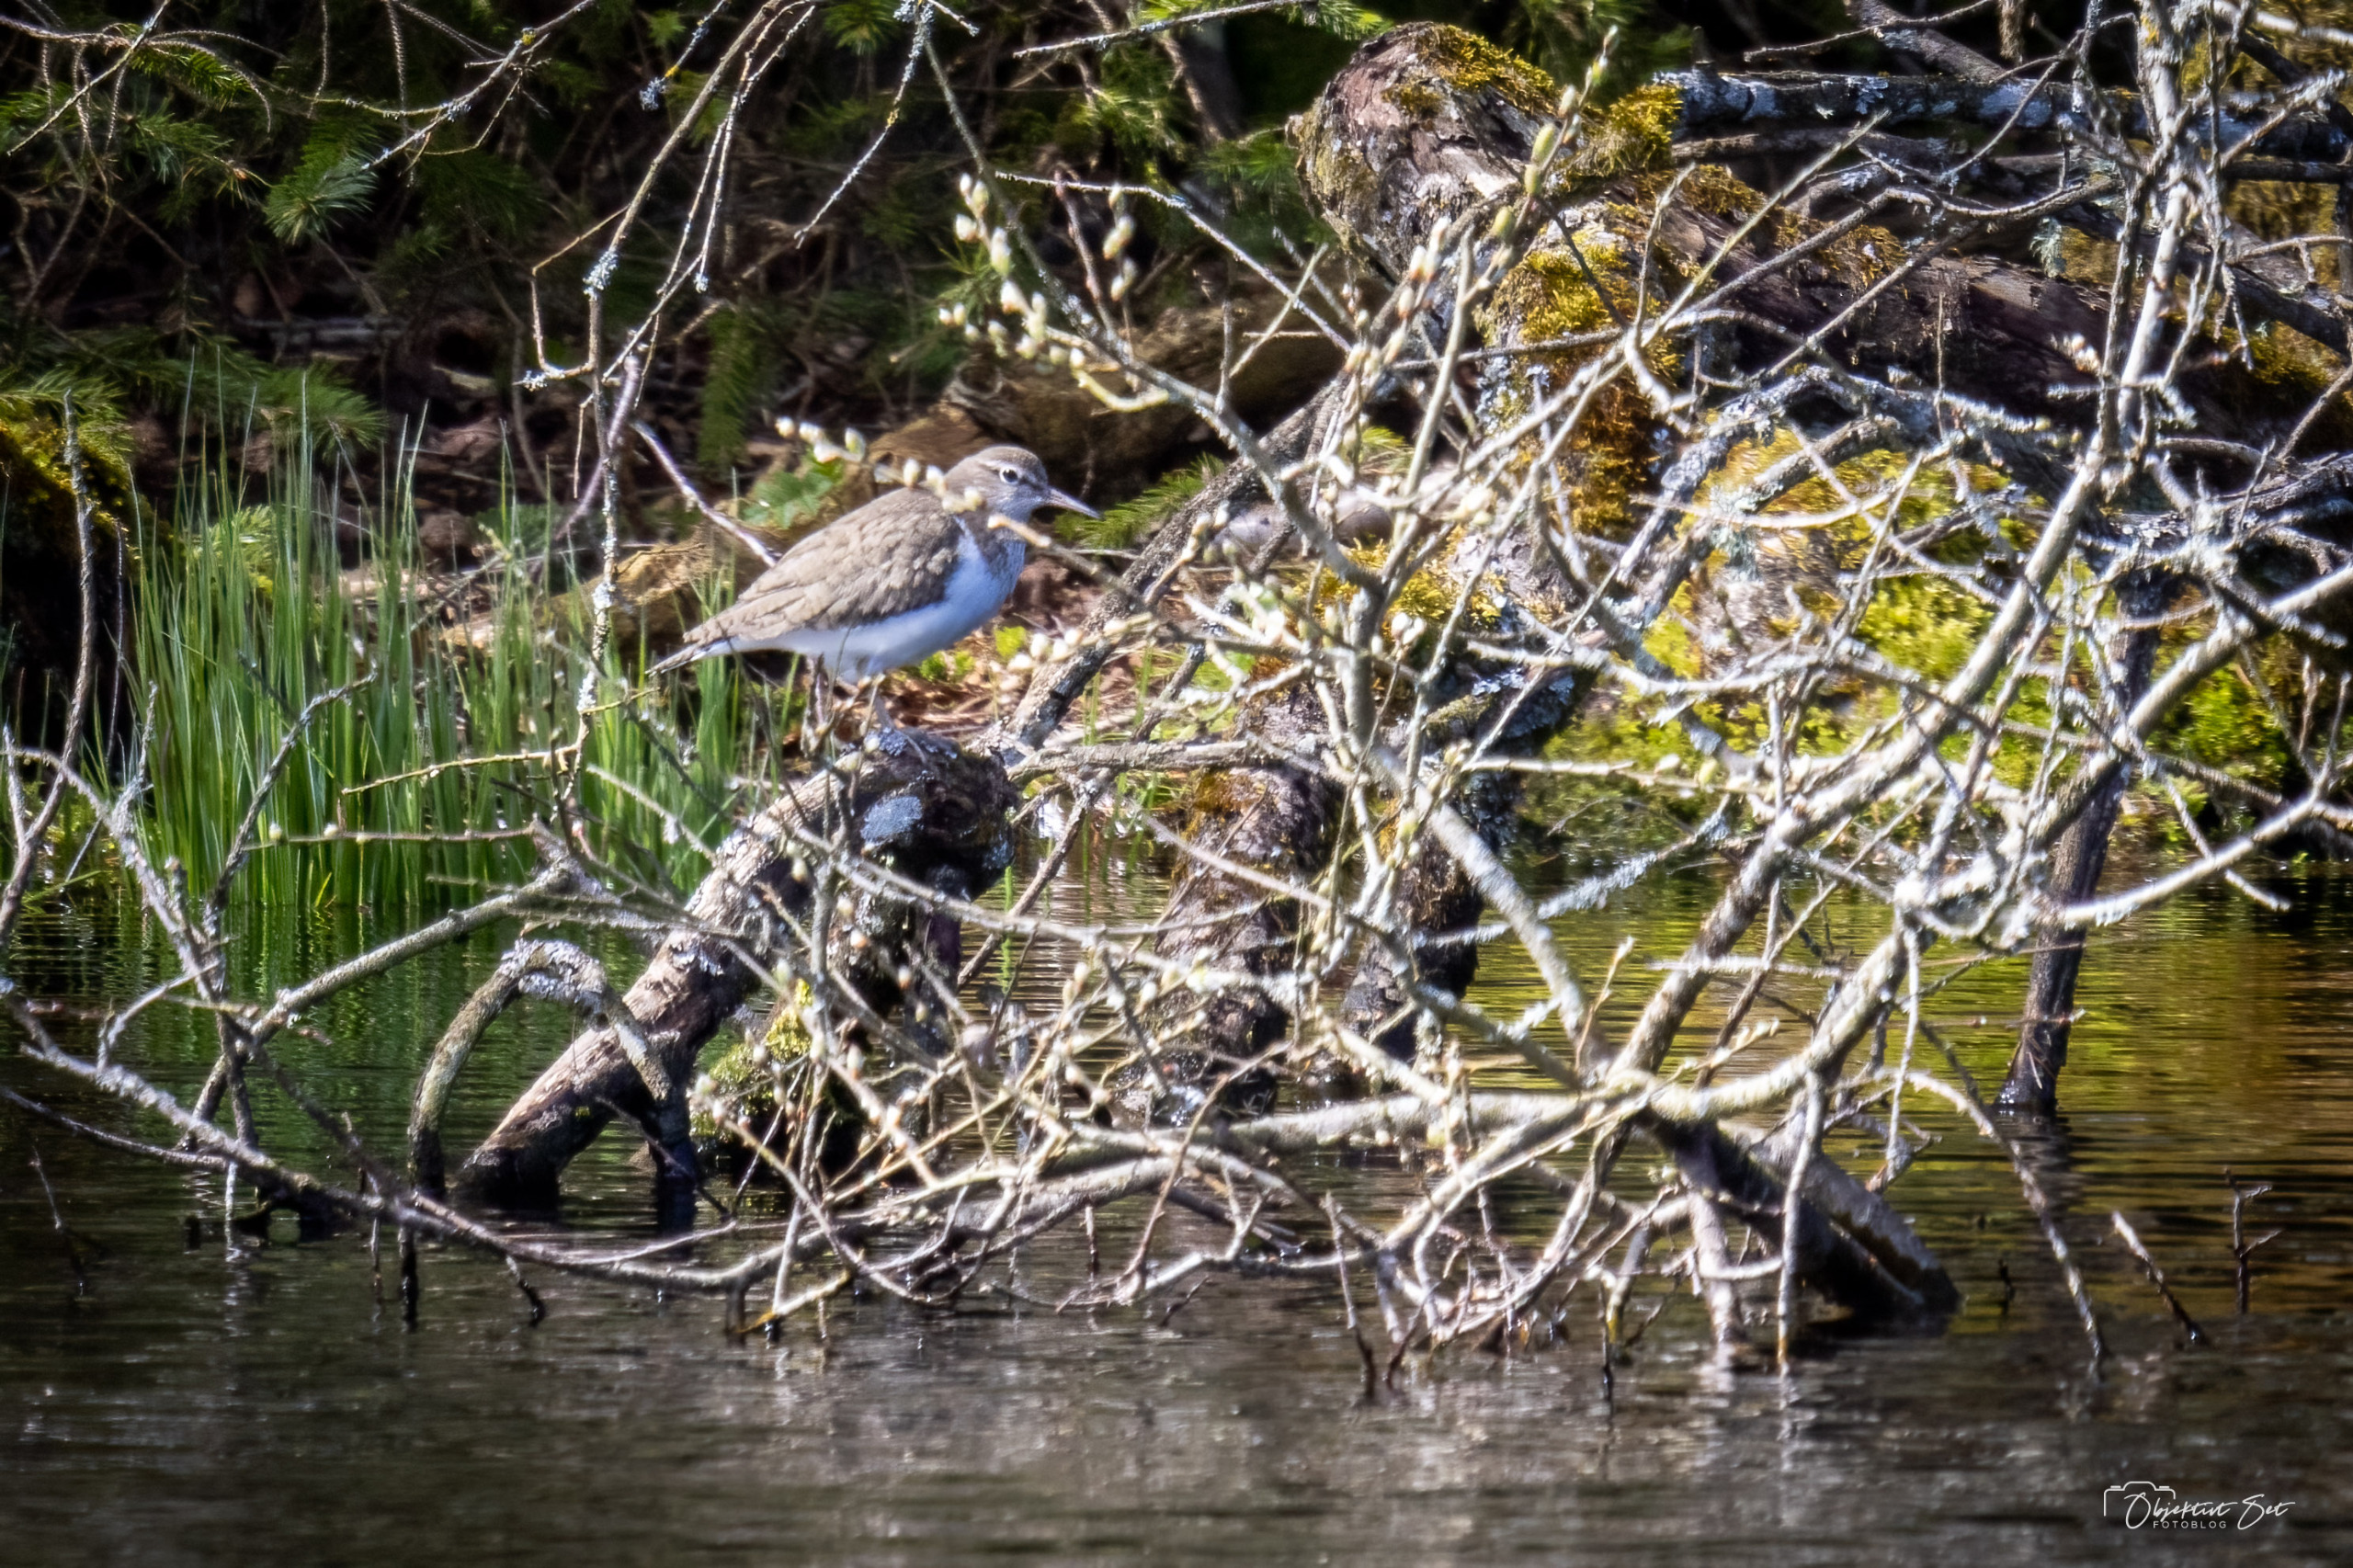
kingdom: Animalia
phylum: Chordata
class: Aves
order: Charadriiformes
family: Scolopacidae
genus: Actitis
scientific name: Actitis hypoleucos
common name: Mudderklire
